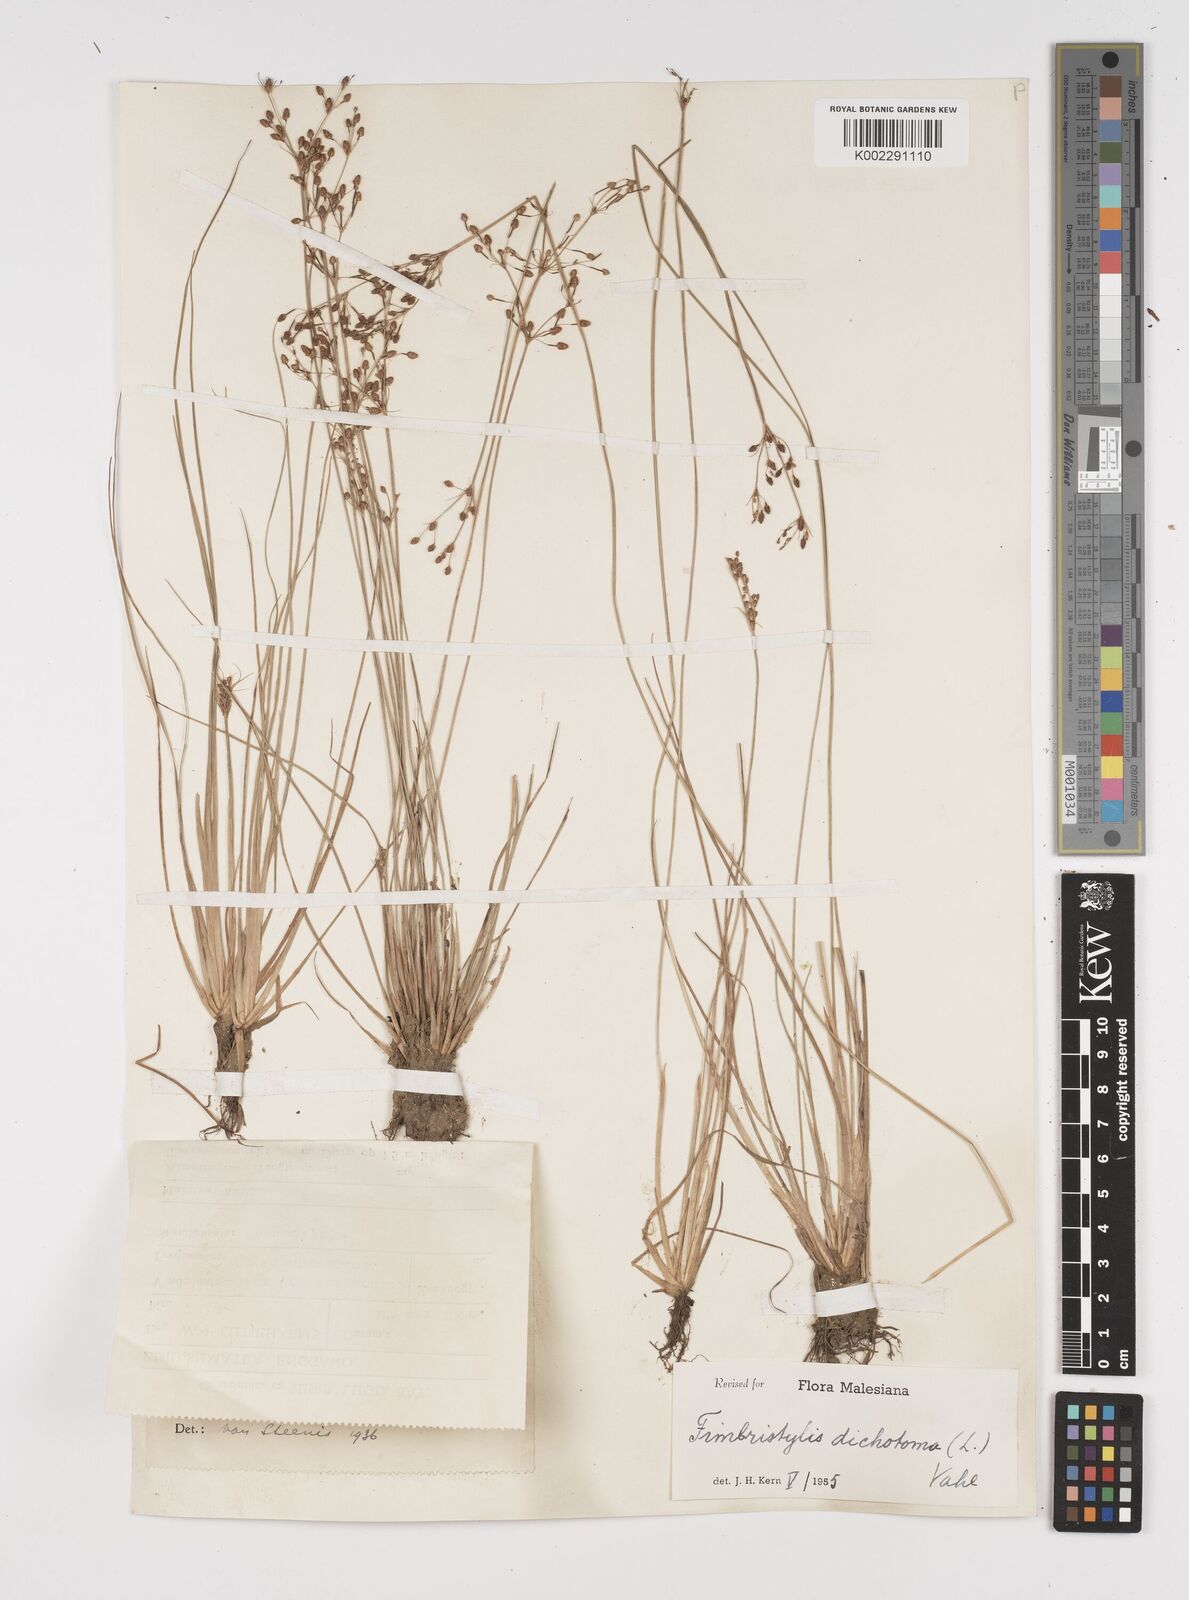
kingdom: Plantae
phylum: Tracheophyta
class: Liliopsida
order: Poales
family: Cyperaceae
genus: Fimbristylis
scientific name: Fimbristylis dichotoma
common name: Forked fimbry
